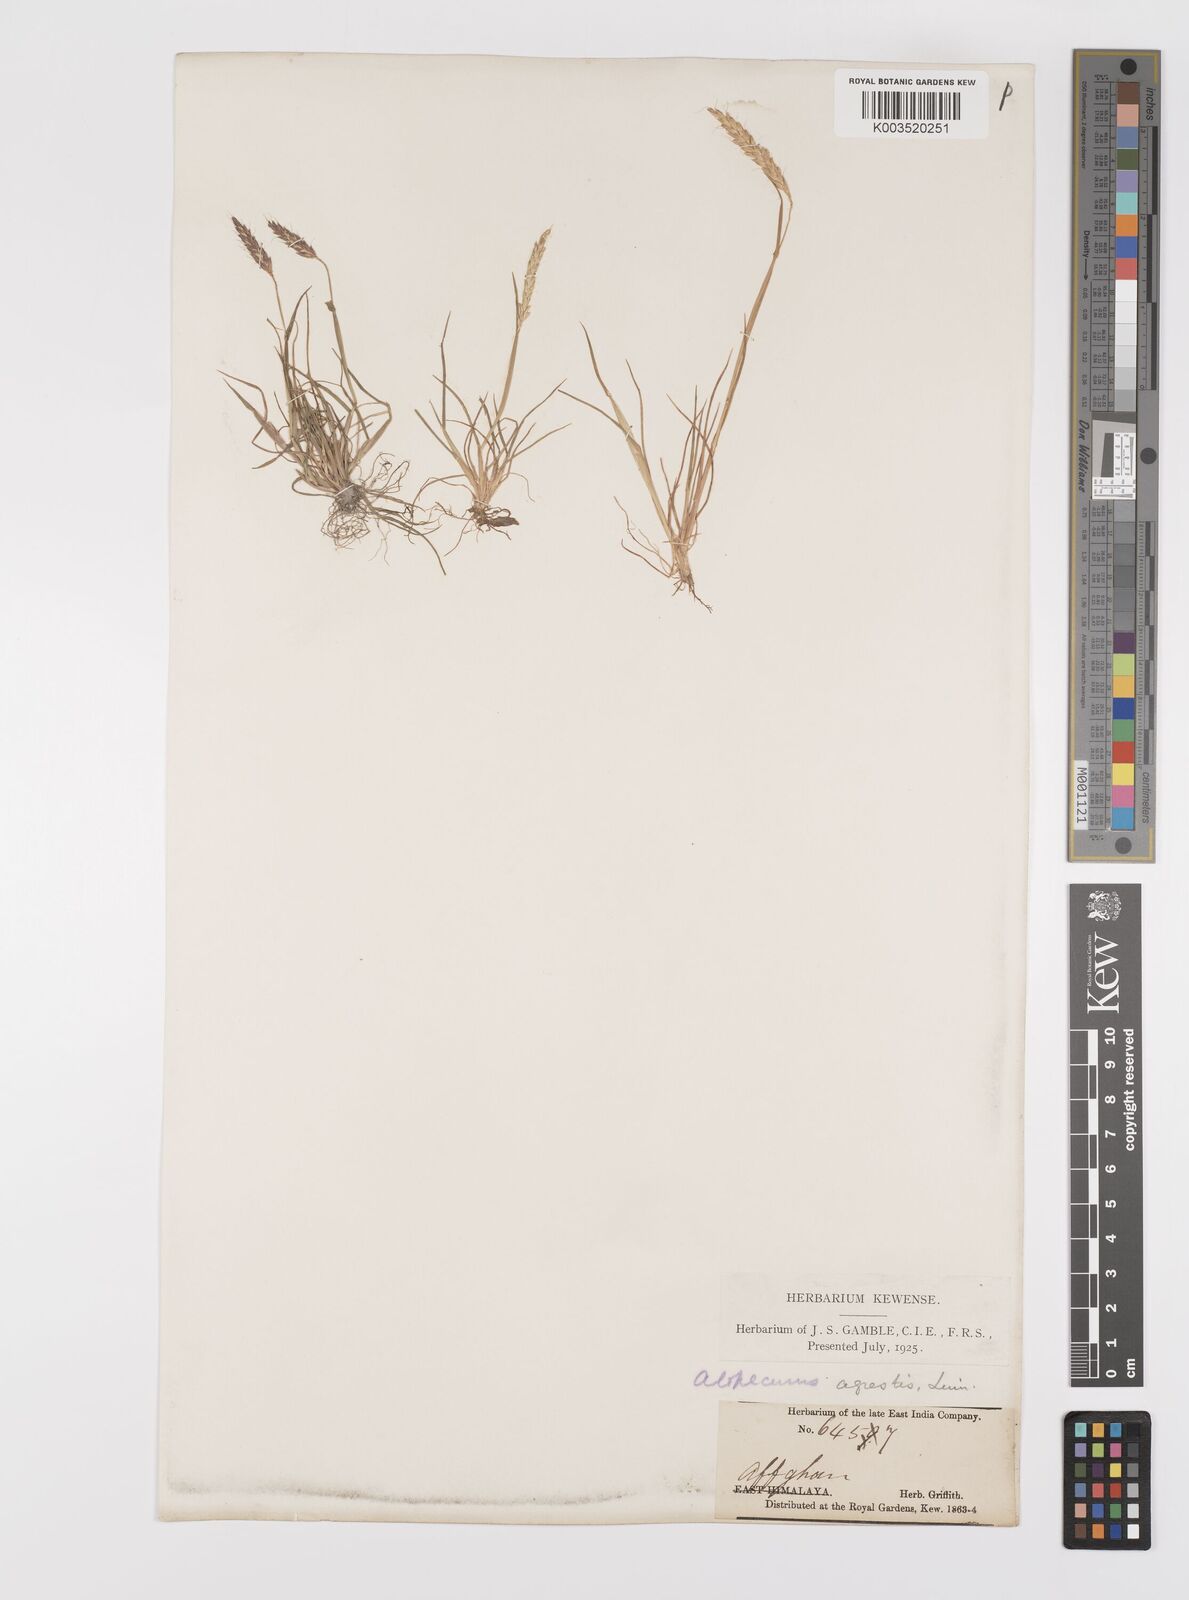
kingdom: Plantae
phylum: Tracheophyta
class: Liliopsida
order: Poales
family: Poaceae
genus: Alopecurus
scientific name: Alopecurus myosuroides
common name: Black-grass
